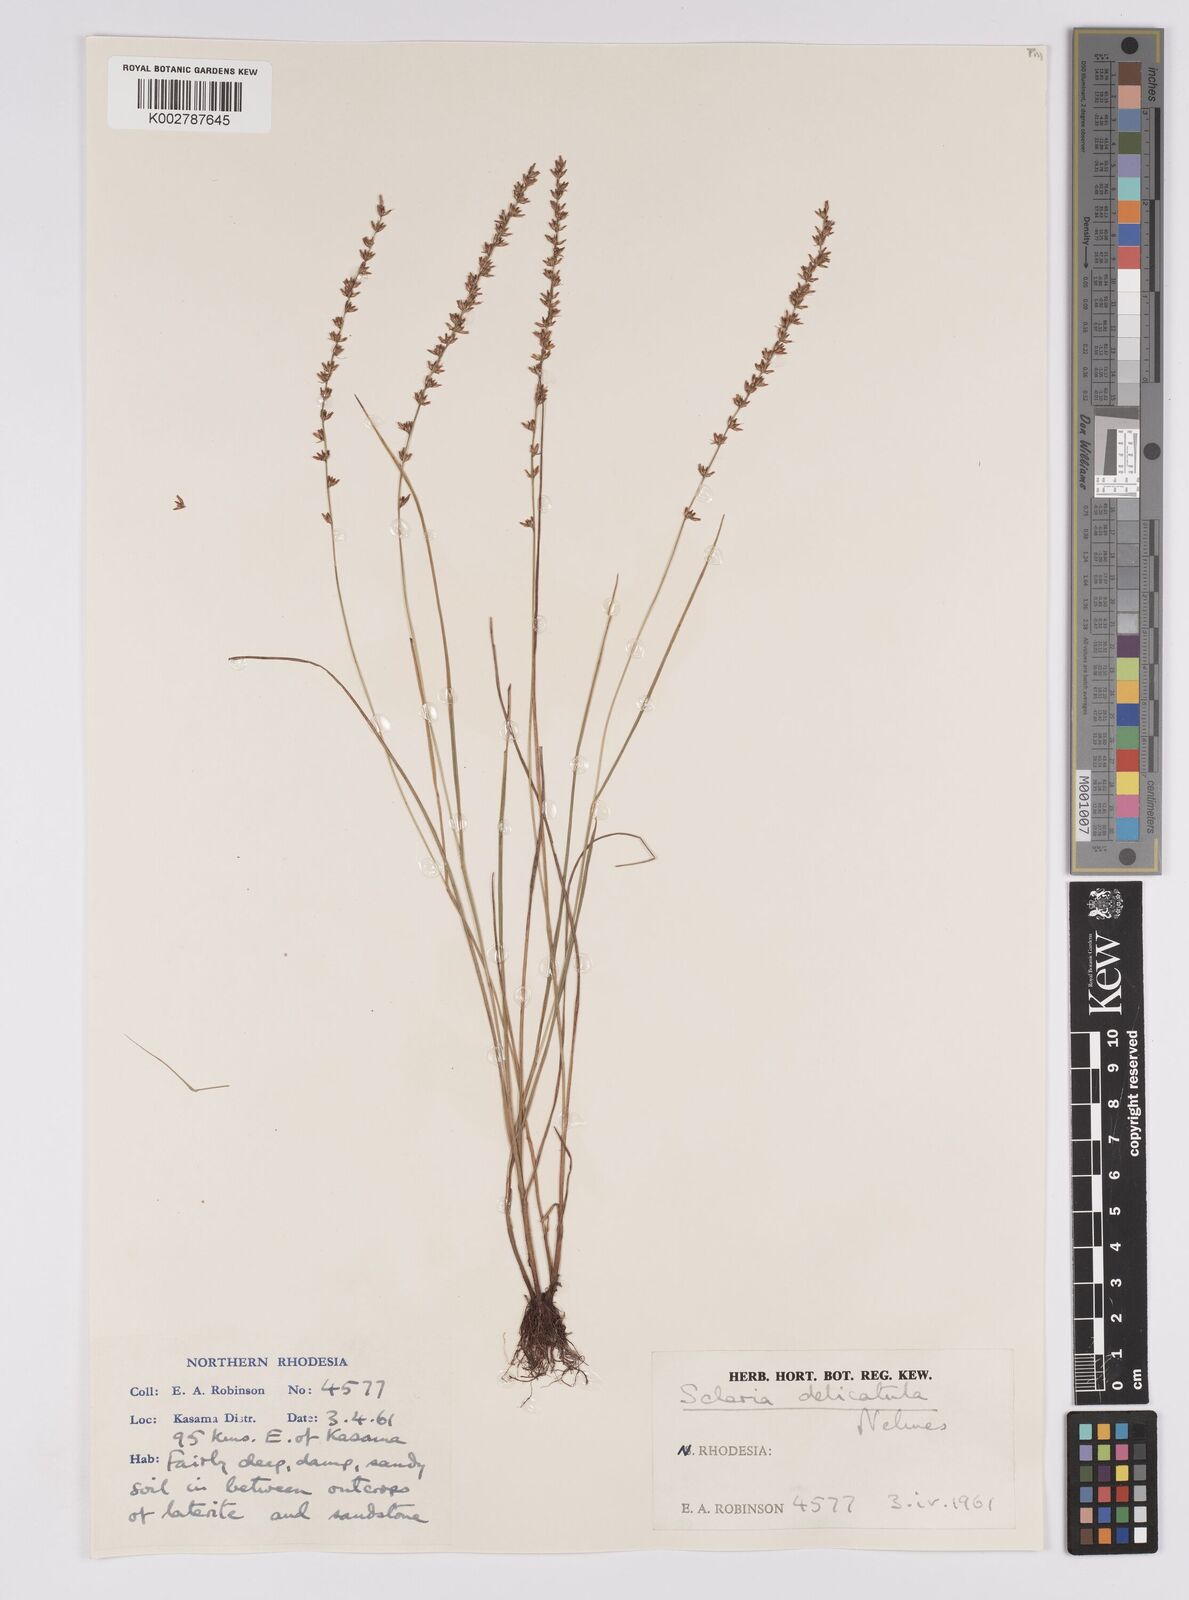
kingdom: Plantae
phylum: Tracheophyta
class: Liliopsida
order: Poales
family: Cyperaceae
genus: Scleria
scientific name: Scleria delicatula
